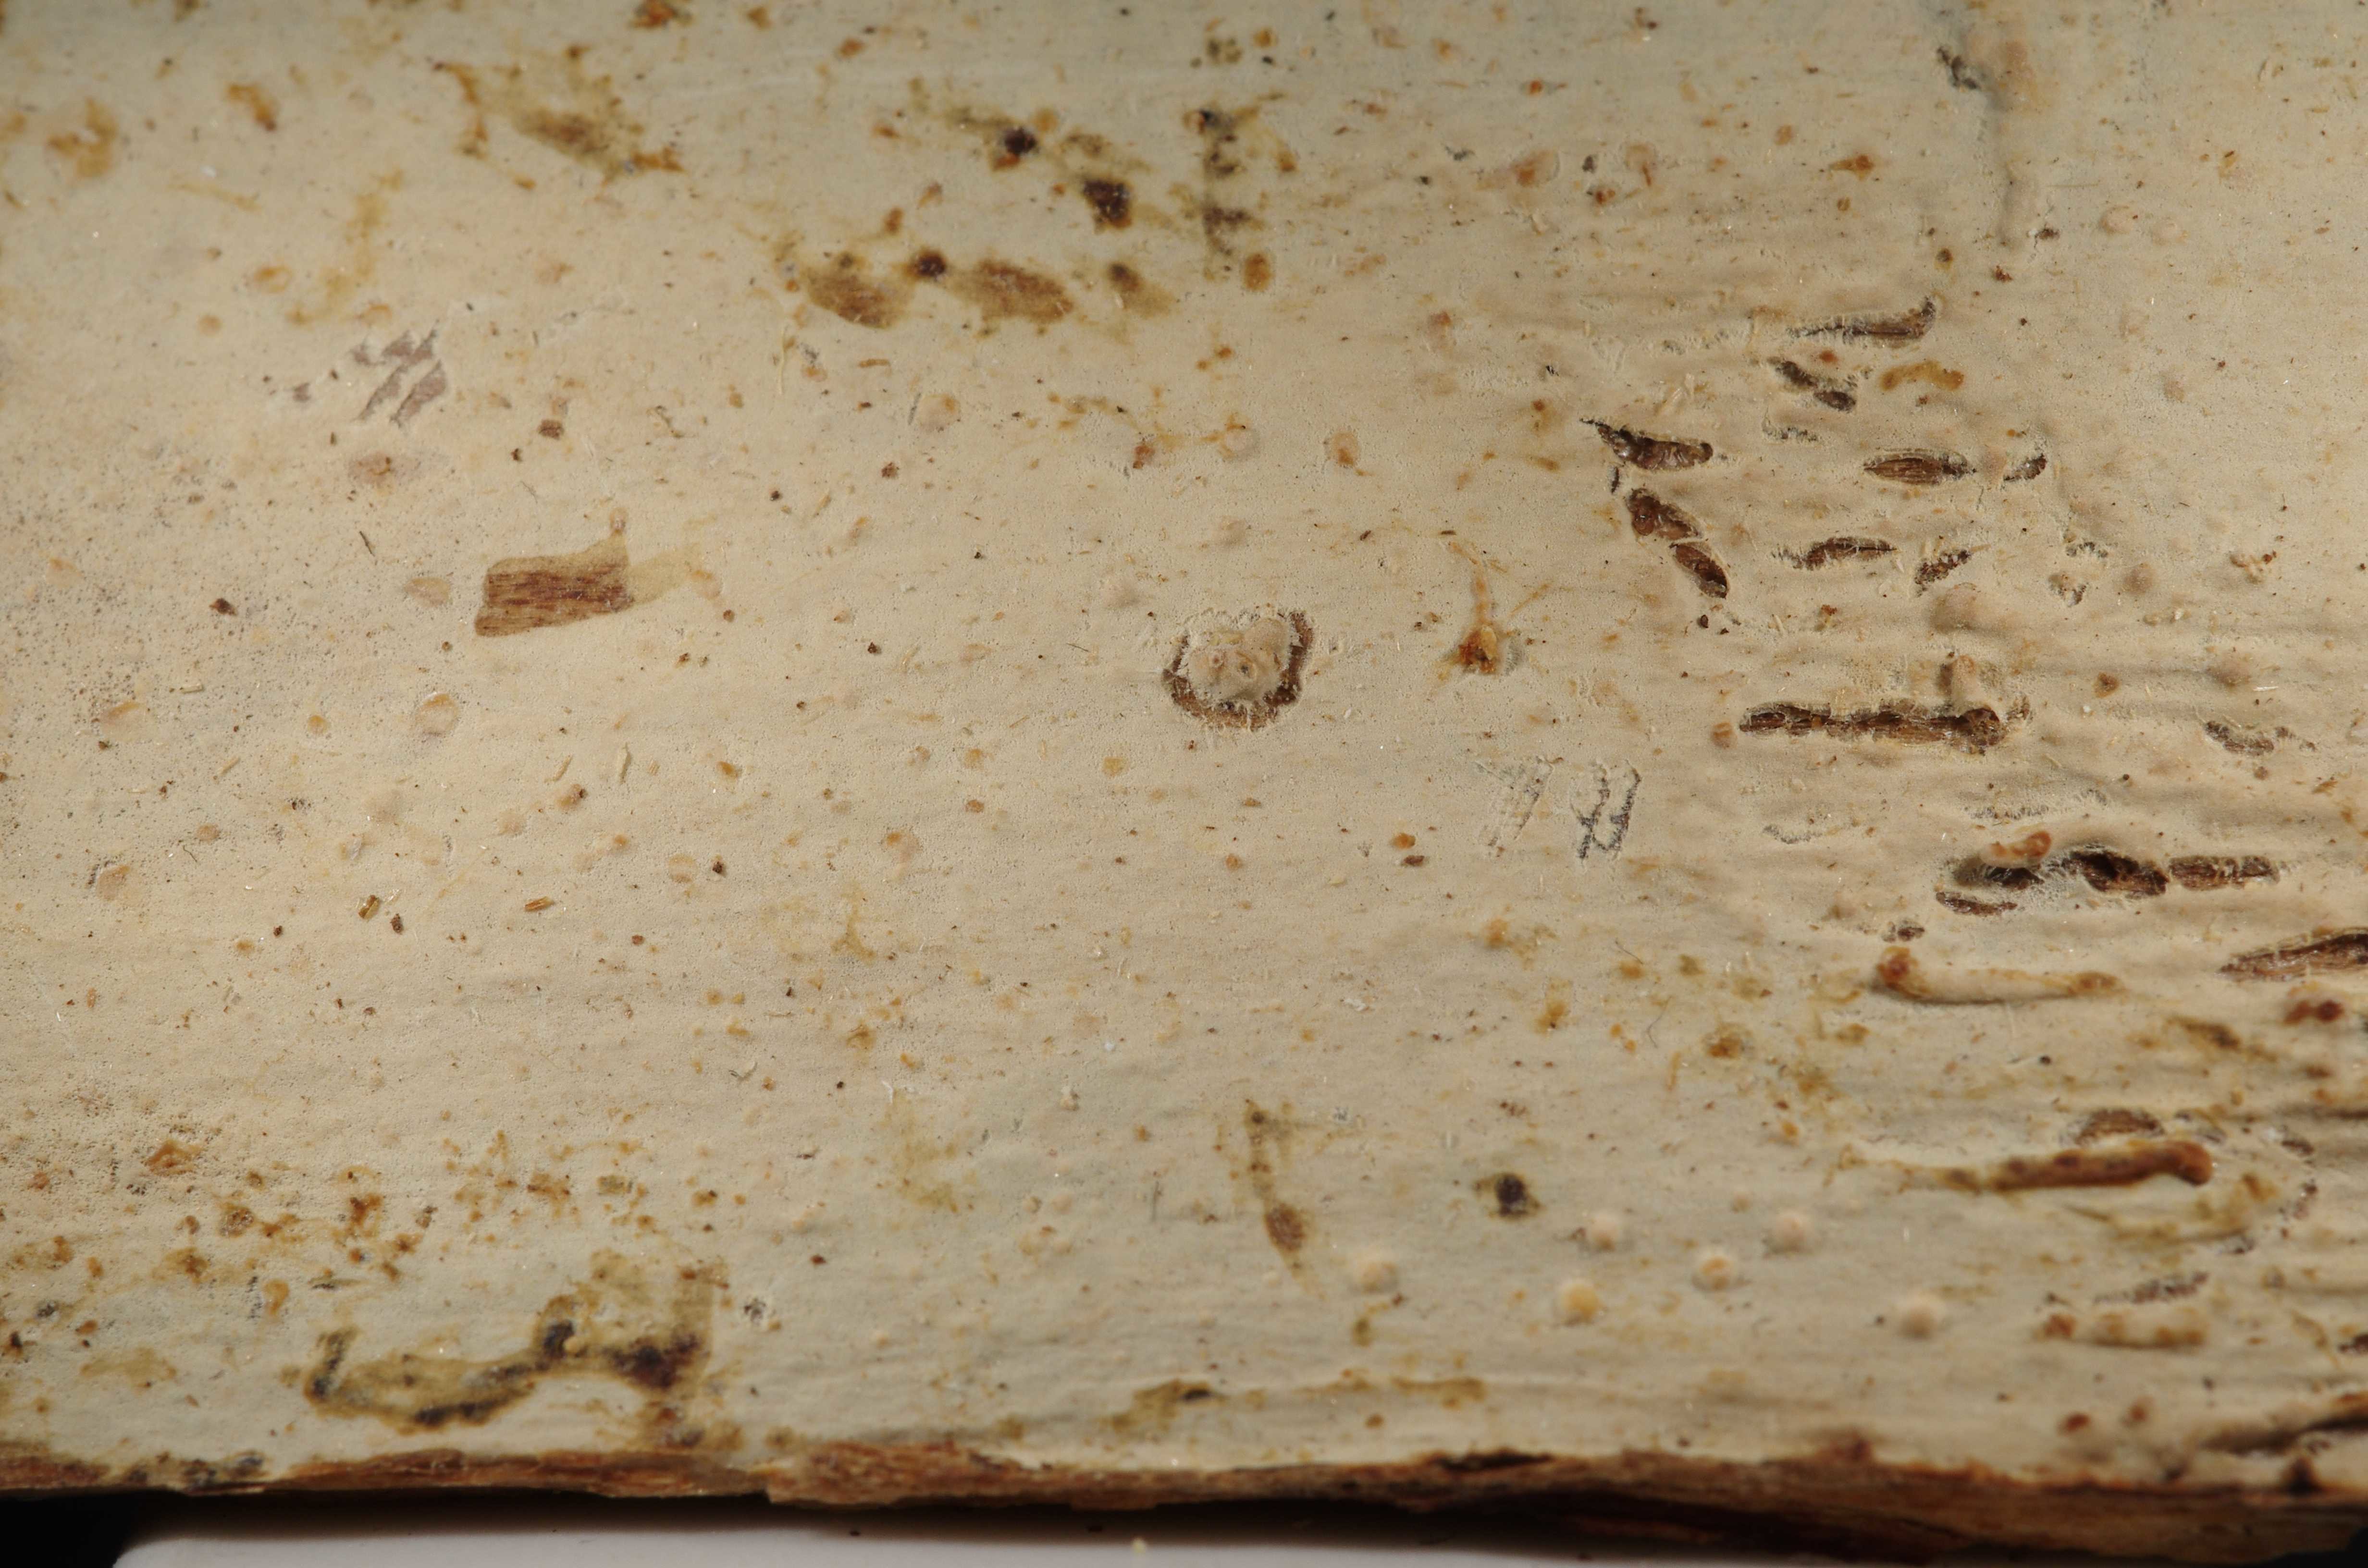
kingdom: Fungi
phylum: Basidiomycota
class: Agaricomycetes
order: Polyporales
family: Meruliaceae
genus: Hypochnicium
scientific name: Hypochnicium subrigescens
